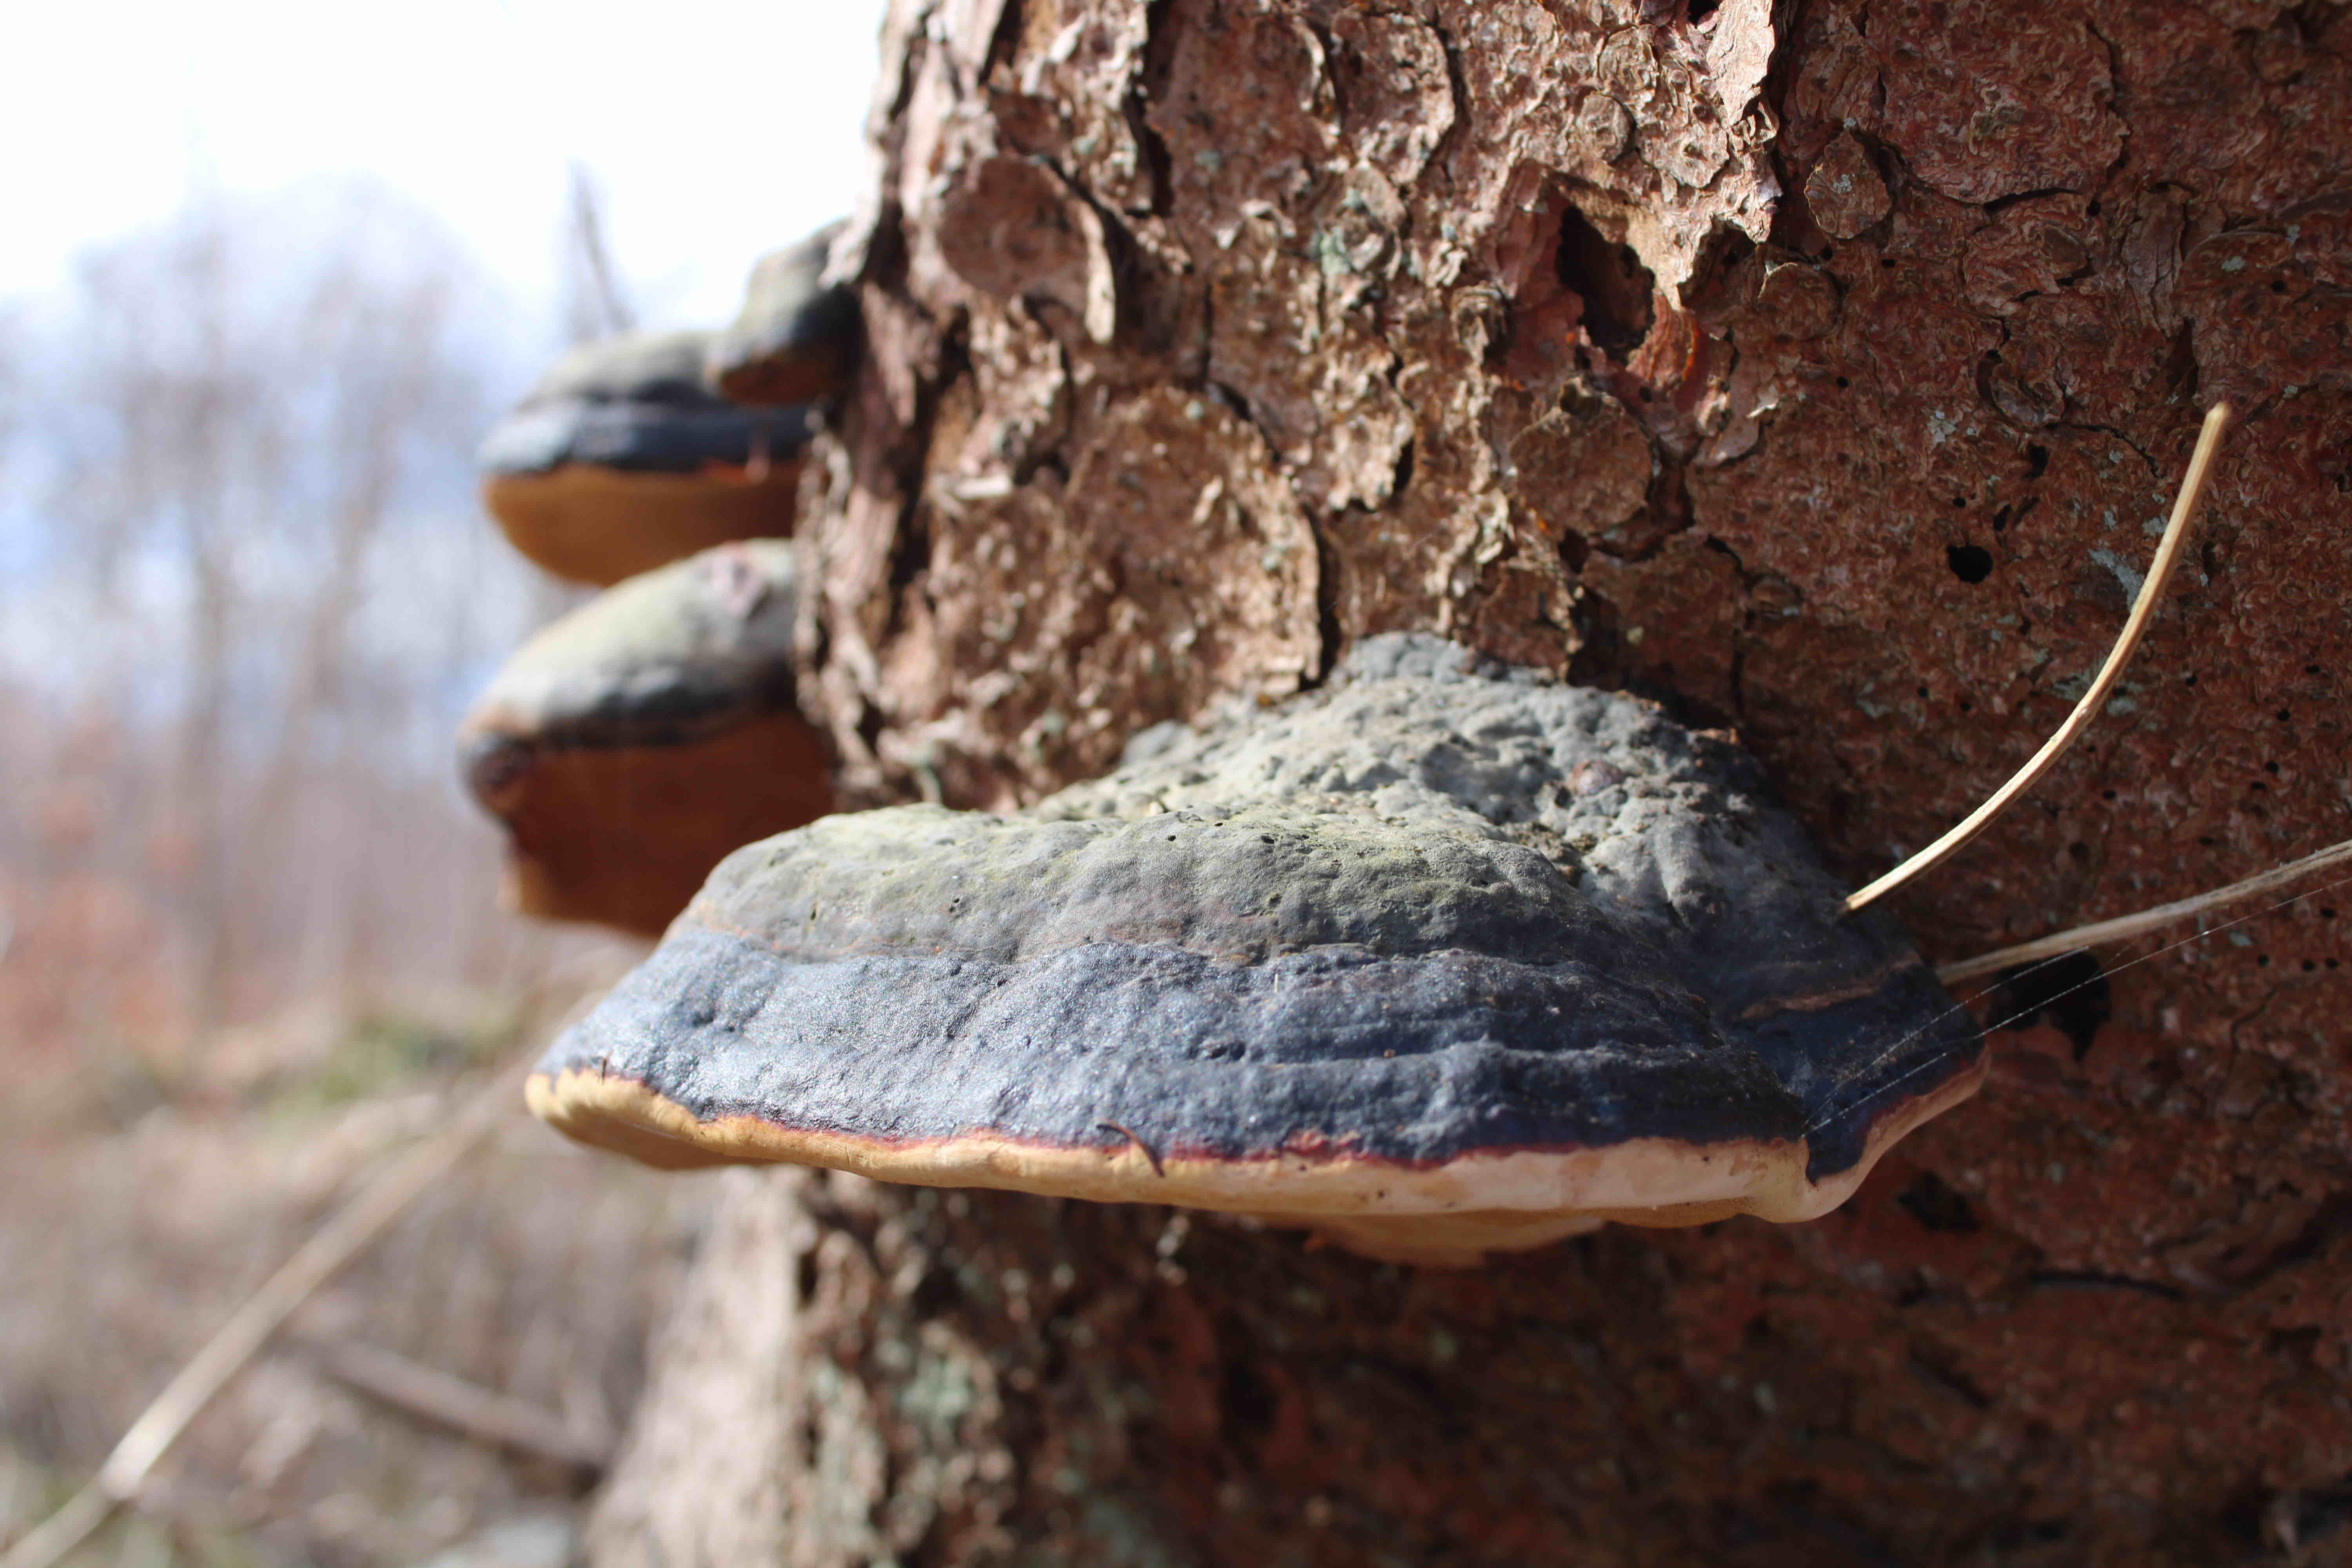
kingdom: Fungi
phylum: Basidiomycota
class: Agaricomycetes
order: Polyporales
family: Fomitopsidaceae
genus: Fomitopsis
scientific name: Fomitopsis pinicola
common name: randbæltet hovporesvamp
